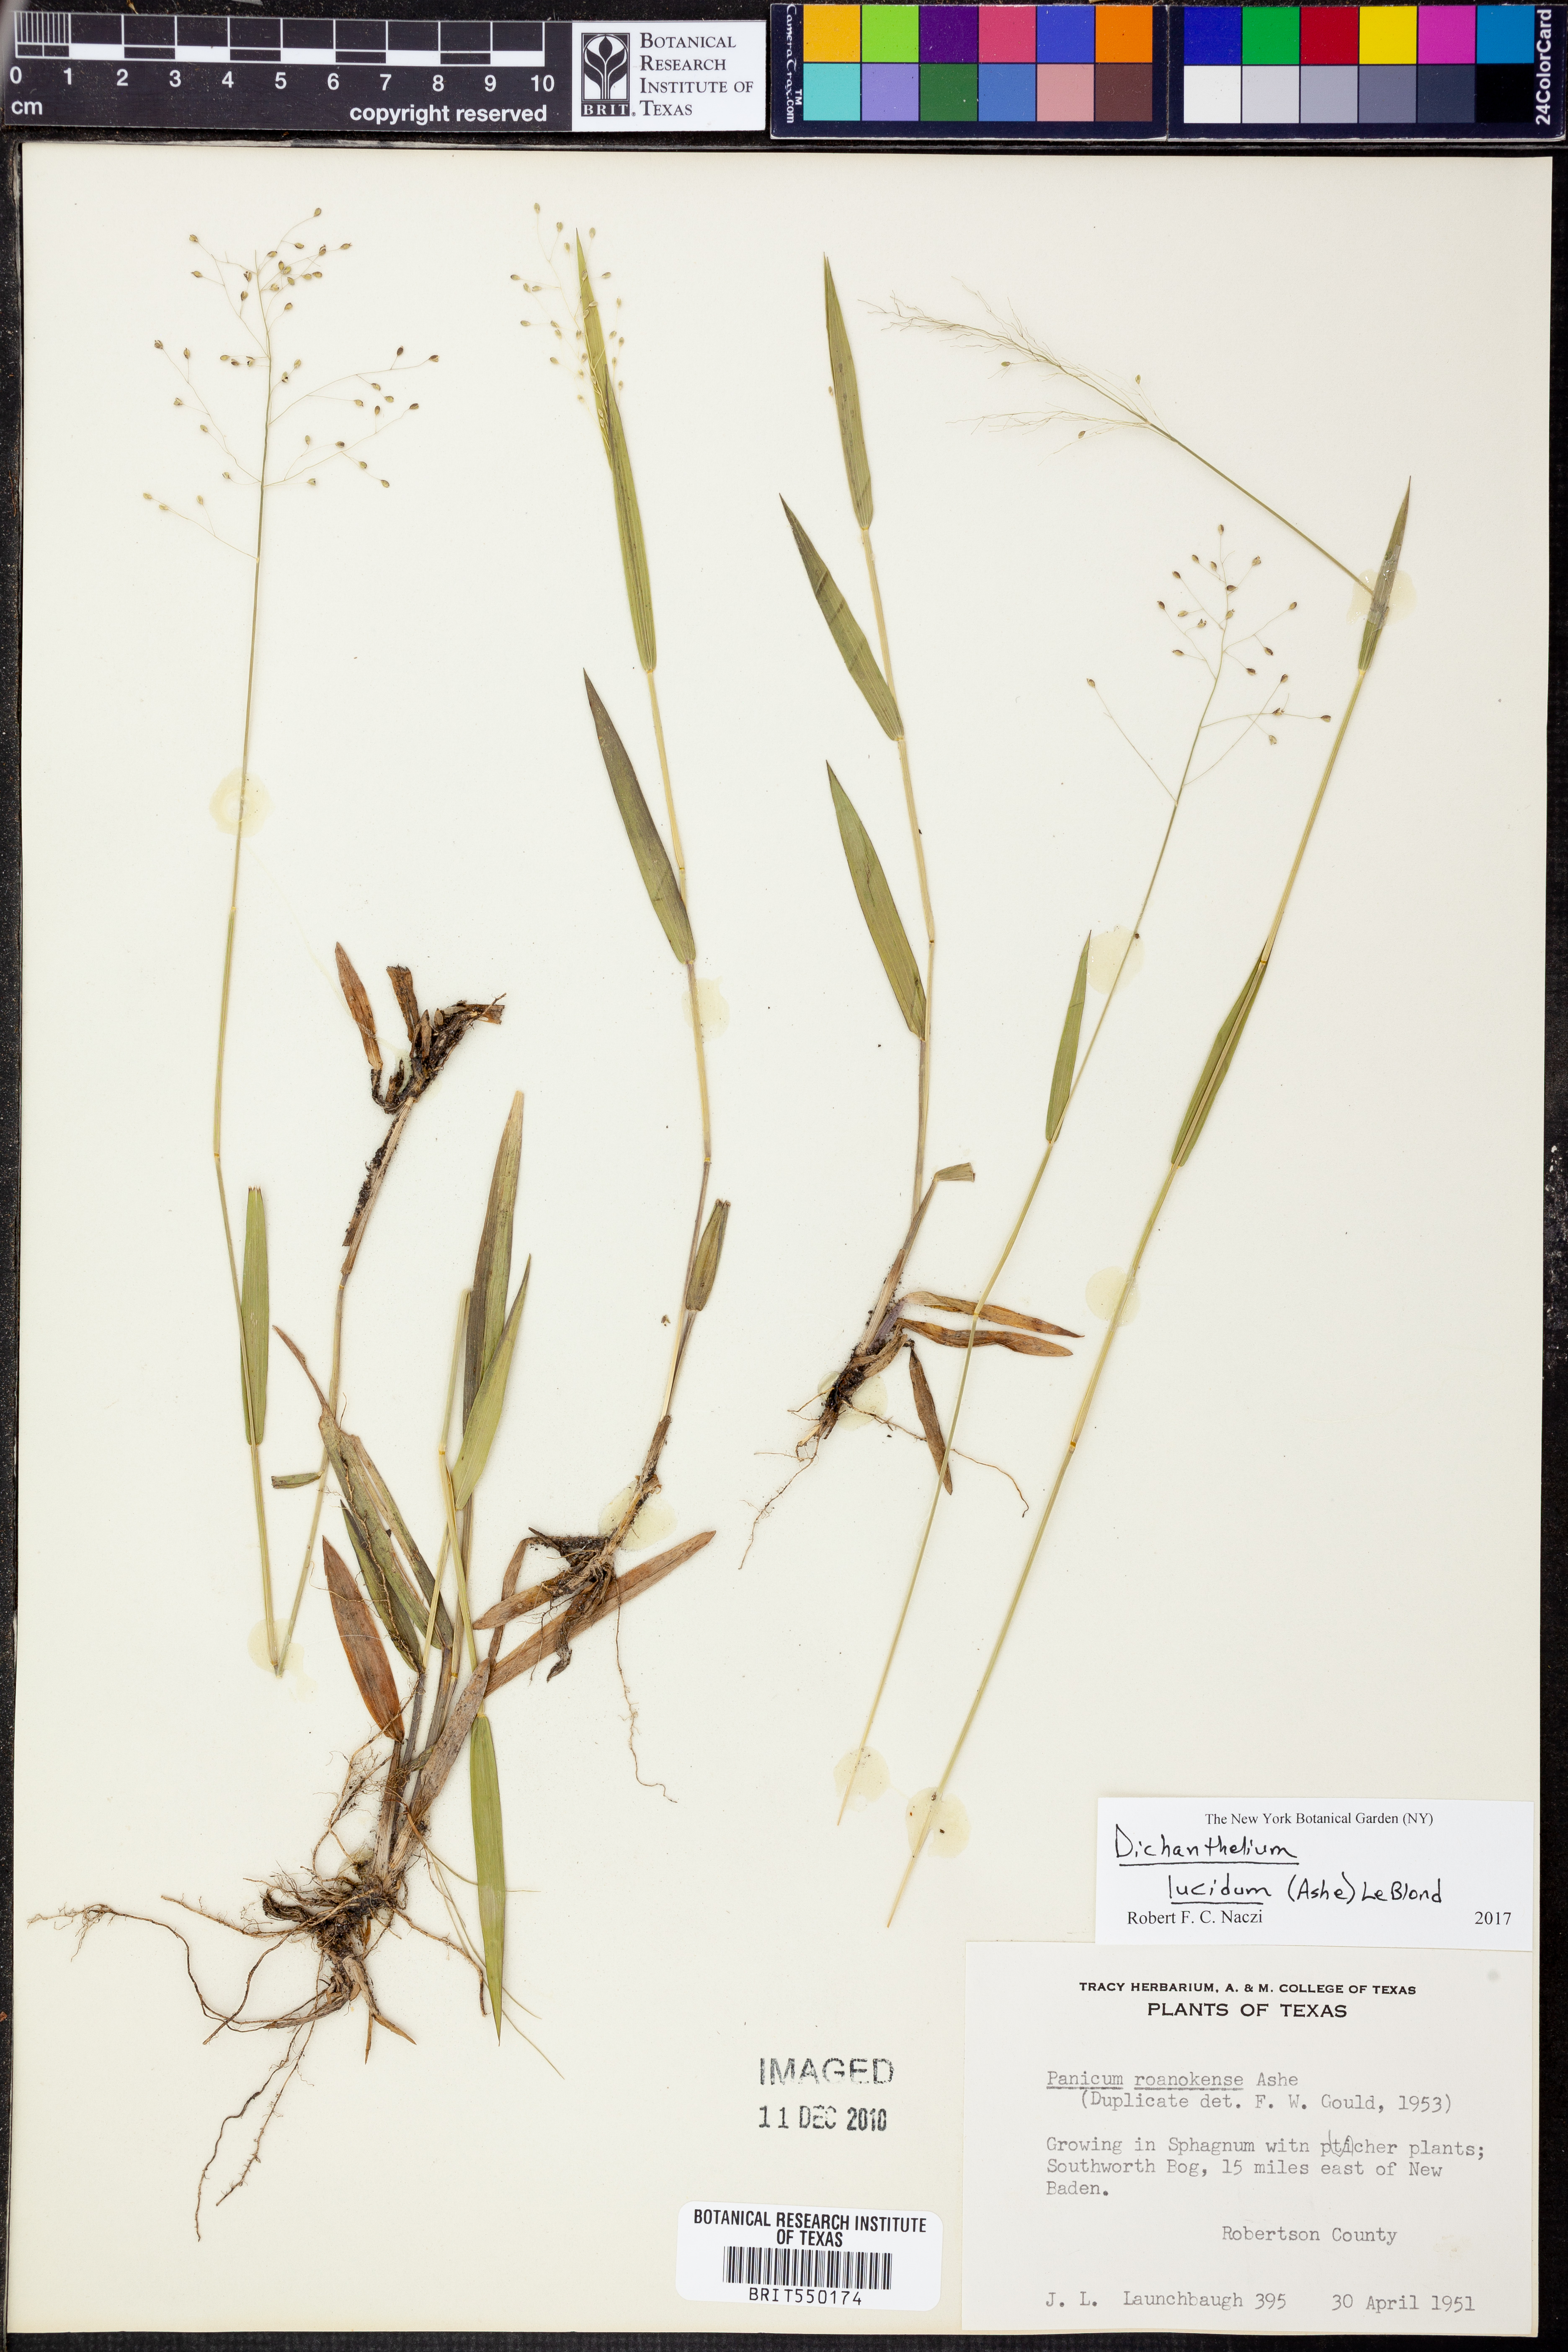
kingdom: Plantae
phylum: Tracheophyta
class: Liliopsida
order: Poales
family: Poaceae
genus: Dichanthelium
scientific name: Dichanthelium dichotomum
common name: Cypress panicgrass
